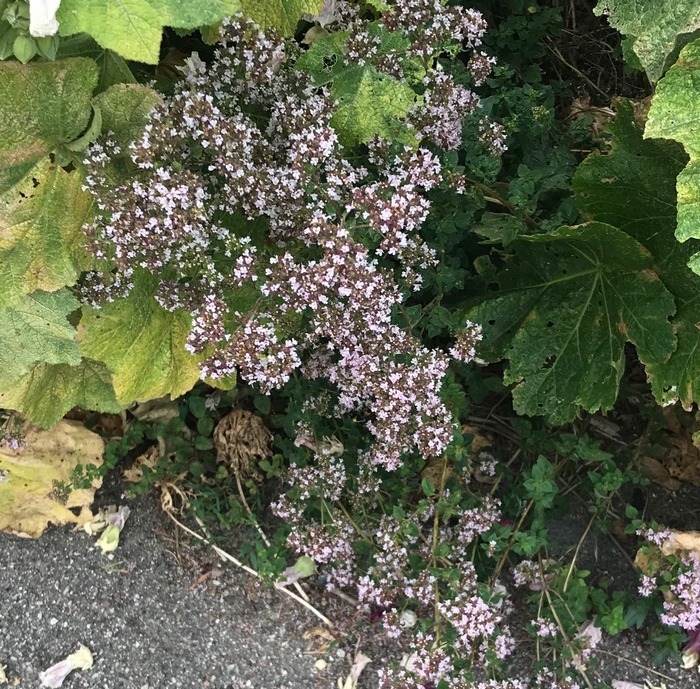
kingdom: Plantae
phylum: Tracheophyta
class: Magnoliopsida
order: Lamiales
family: Lamiaceae
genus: Origanum
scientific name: Origanum vulgare
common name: Merian
